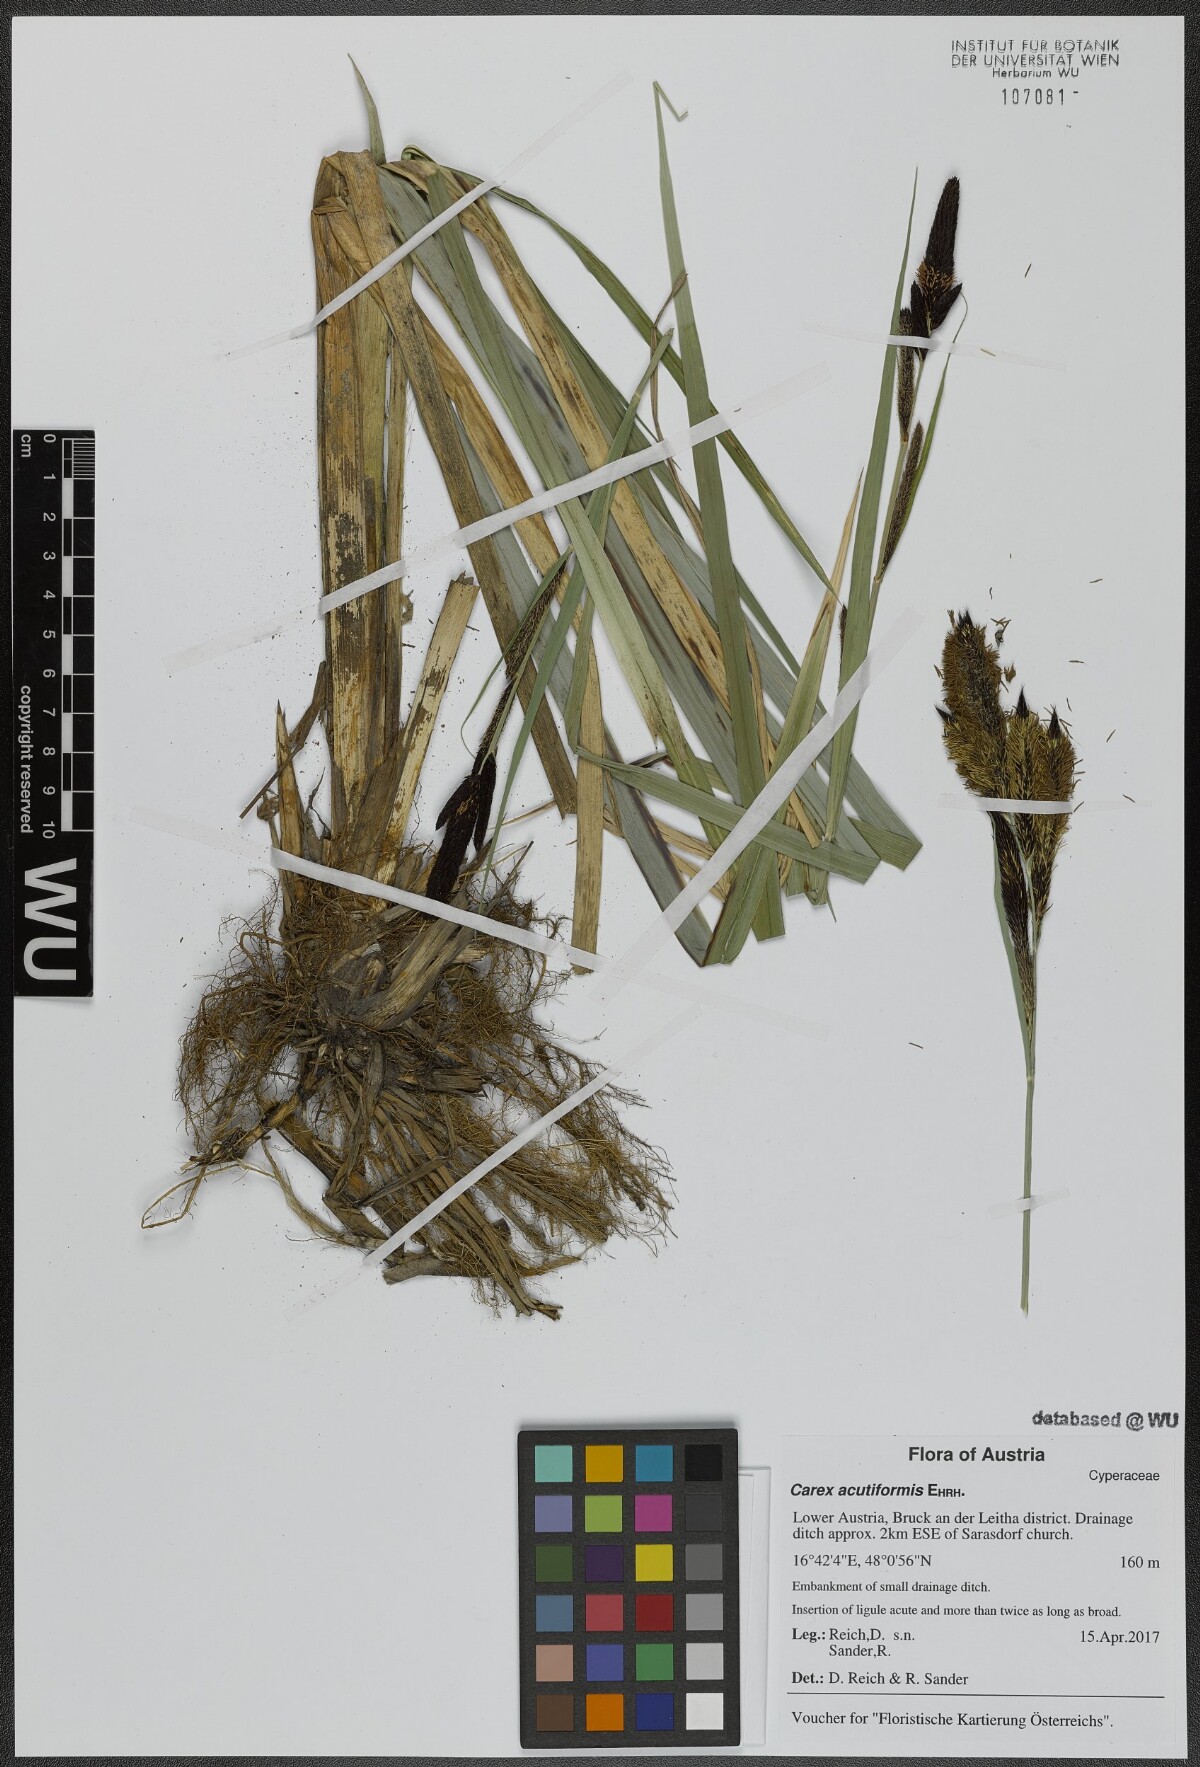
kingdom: Plantae
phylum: Tracheophyta
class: Liliopsida
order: Poales
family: Cyperaceae
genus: Carex
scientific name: Carex acutiformis
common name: Lesser pond-sedge
